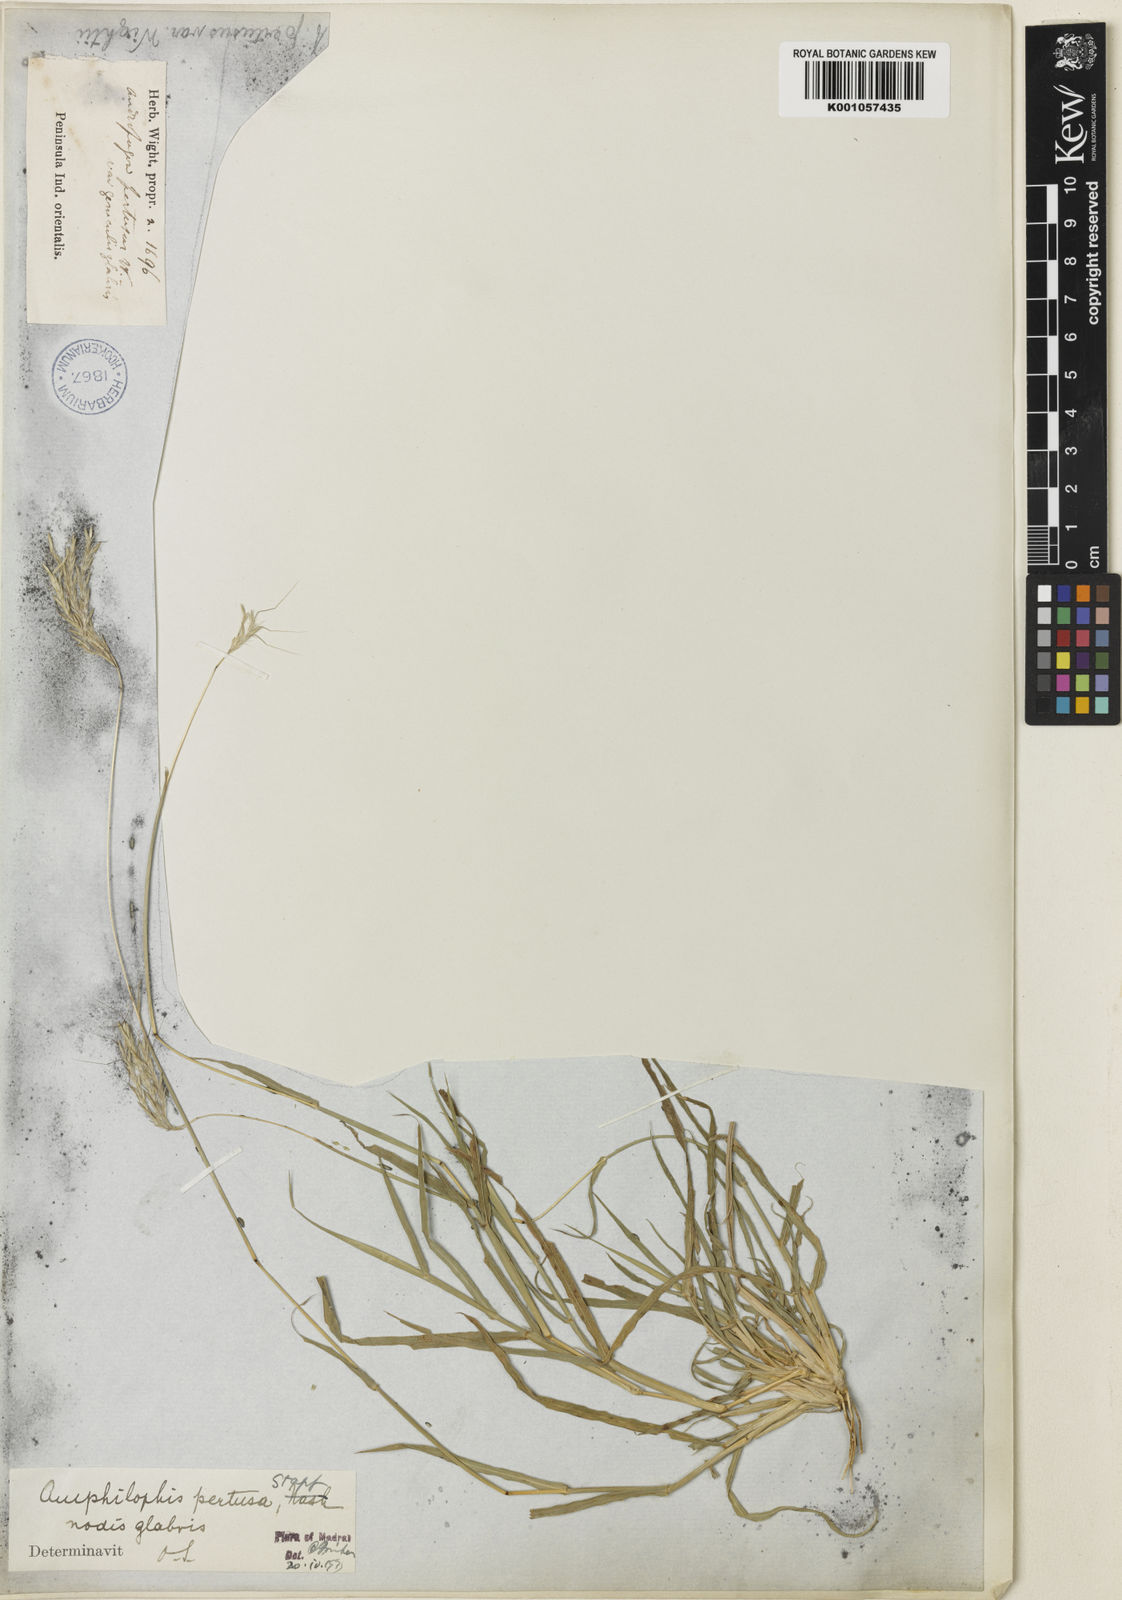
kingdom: Plantae
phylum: Tracheophyta
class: Liliopsida
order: Poales
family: Poaceae
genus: Bothriochloa
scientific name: Bothriochloa pertusa
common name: Pitted beardgrass
